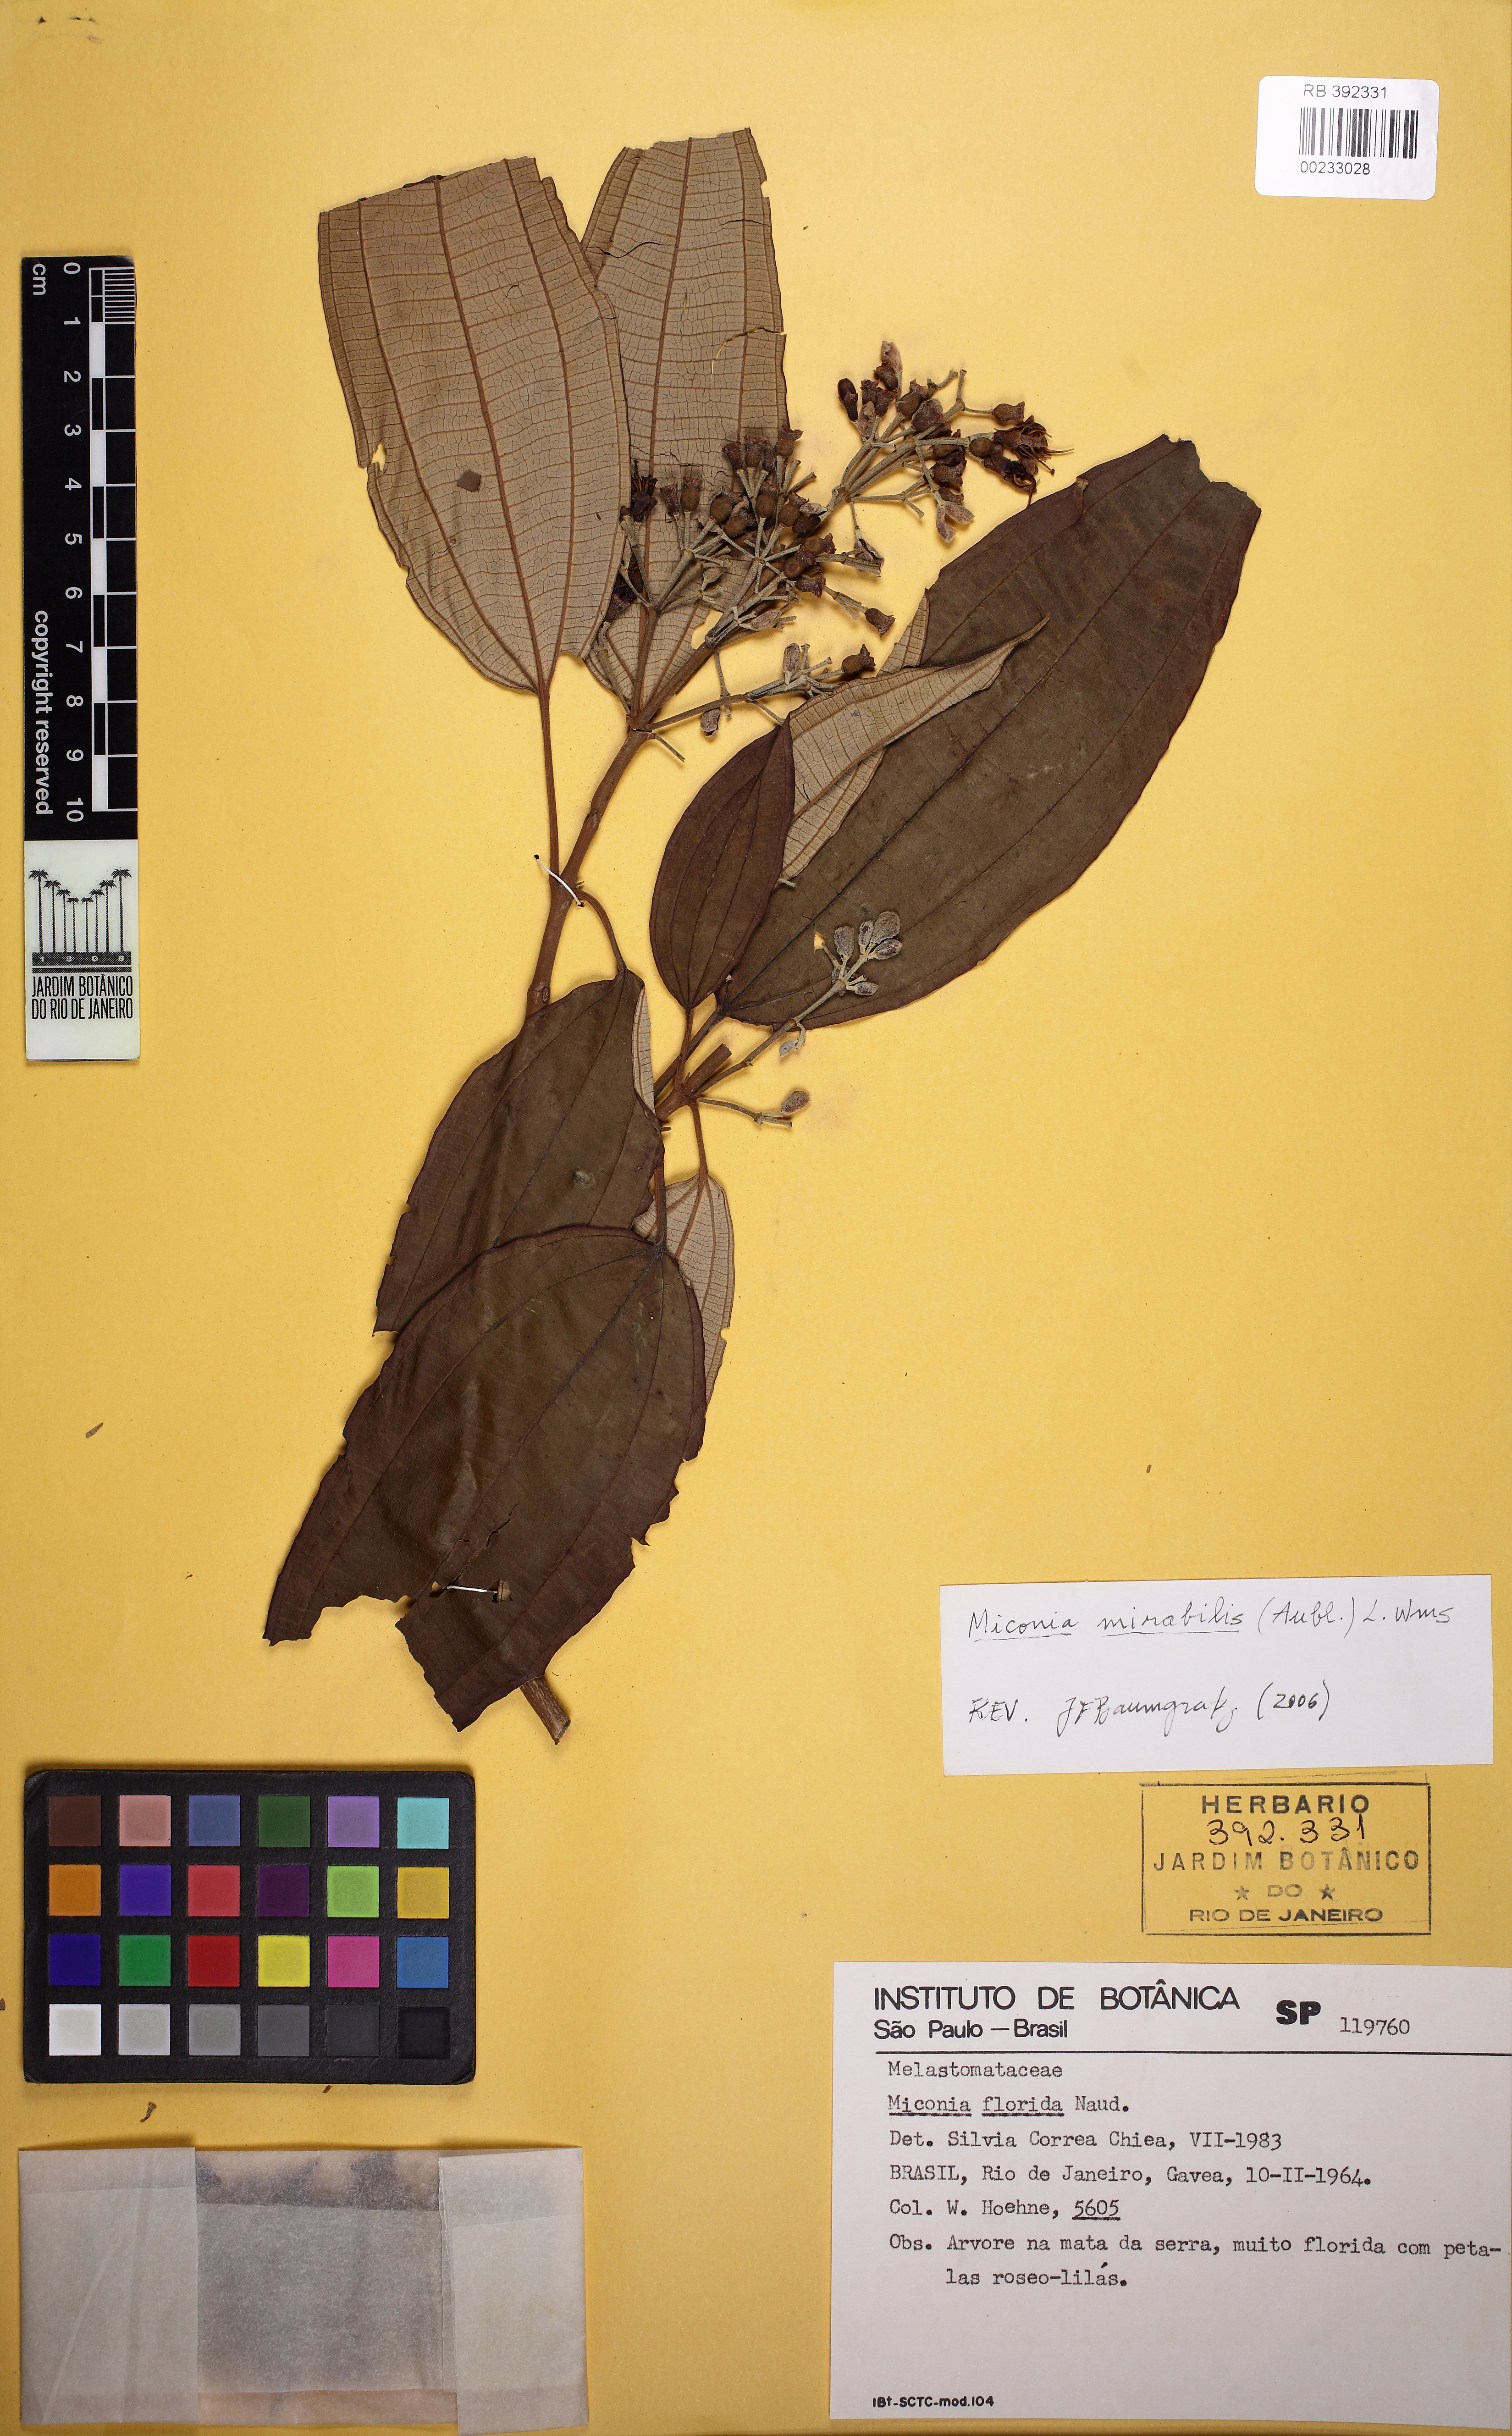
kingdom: Plantae
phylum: Tracheophyta
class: Magnoliopsida
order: Myrtales
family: Melastomataceae
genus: Miconia
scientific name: Miconia mirabilis
